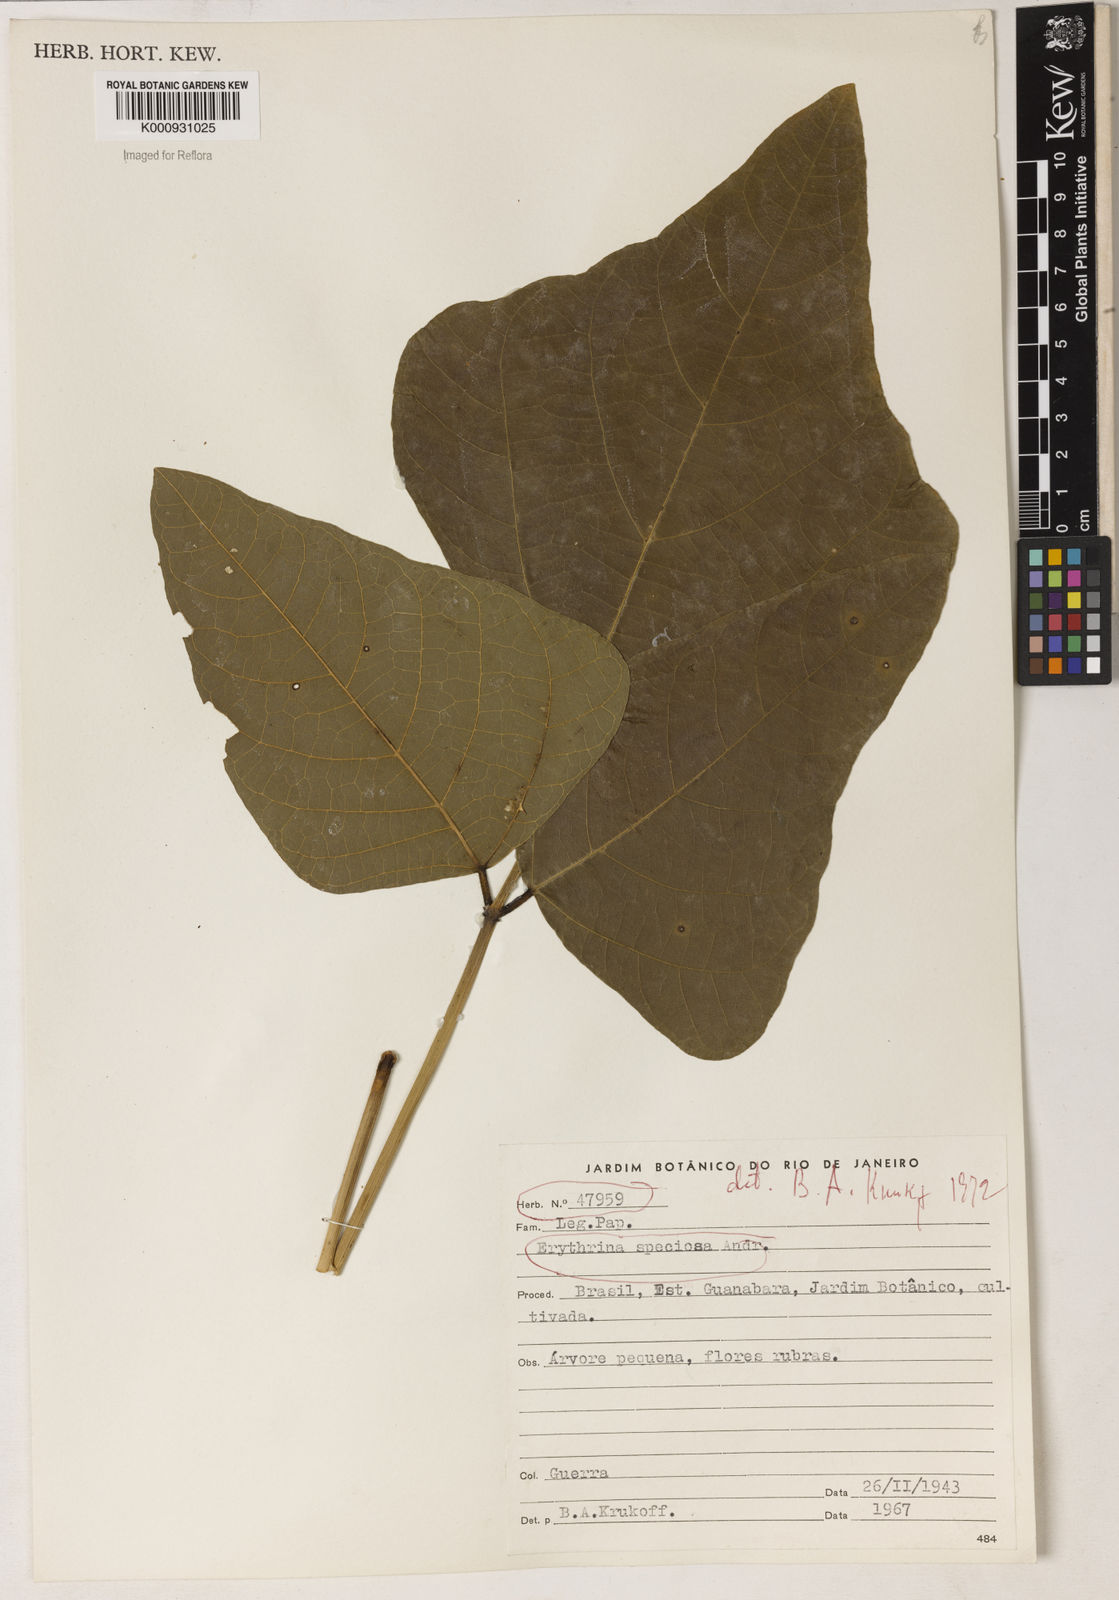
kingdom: Plantae
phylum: Tracheophyta
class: Magnoliopsida
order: Fabales
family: Fabaceae
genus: Erythrina
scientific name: Erythrina speciosa
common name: Coral tree
